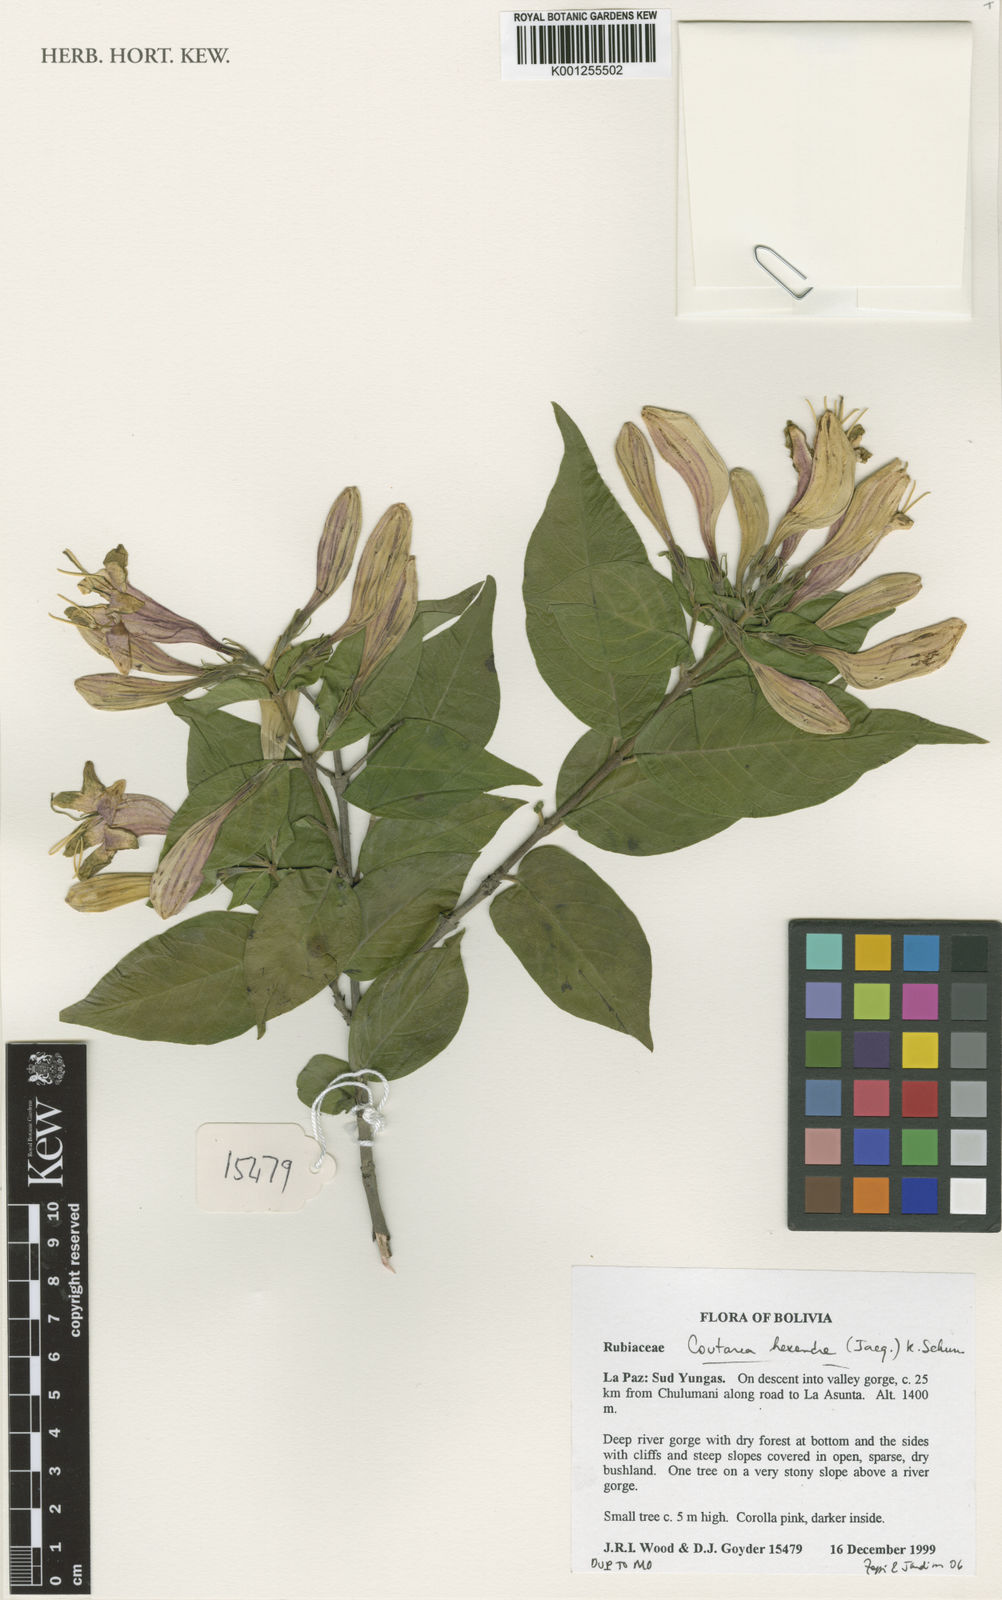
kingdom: Plantae
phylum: Tracheophyta
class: Magnoliopsida
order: Gentianales
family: Rubiaceae
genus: Coutarea
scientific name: Coutarea hexandra
